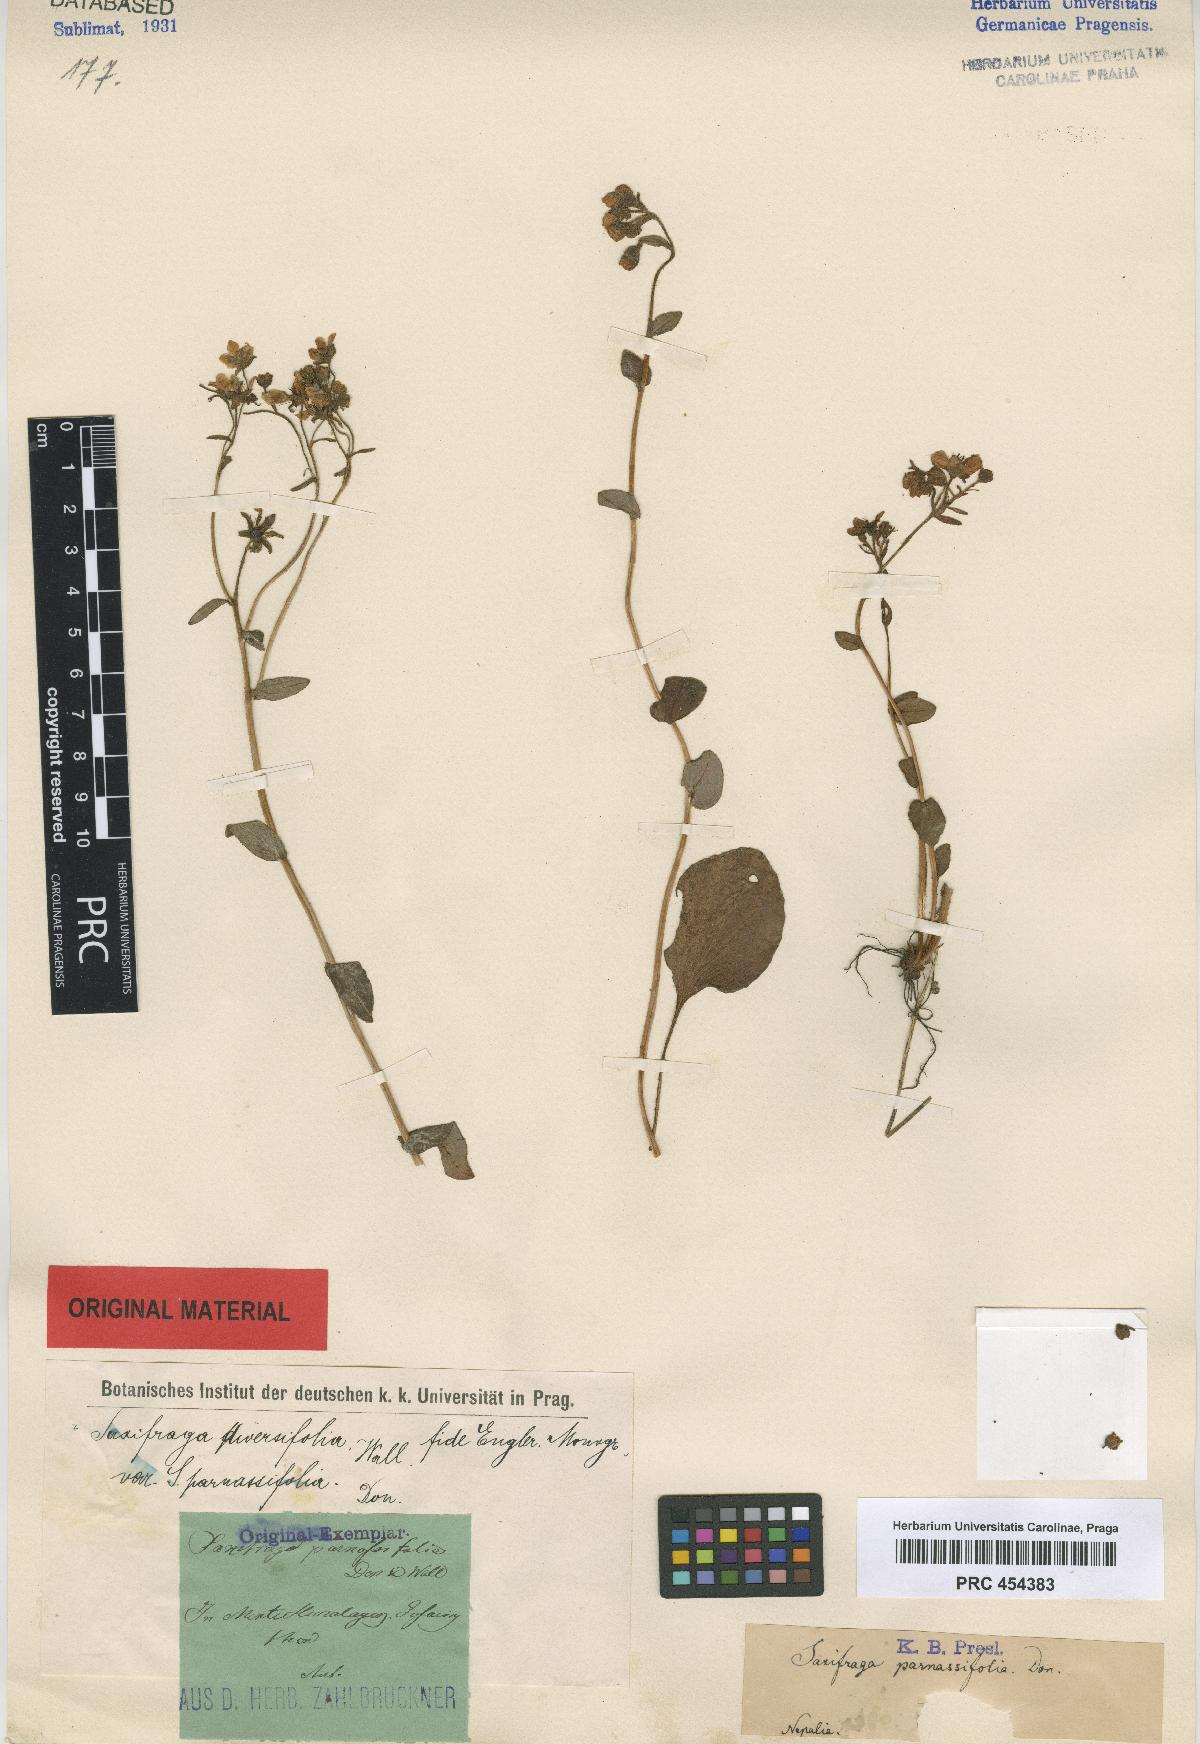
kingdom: Plantae
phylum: Tracheophyta
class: Magnoliopsida
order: Saxifragales
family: Saxifragaceae
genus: Saxifraga
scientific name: Saxifraga hookeri
